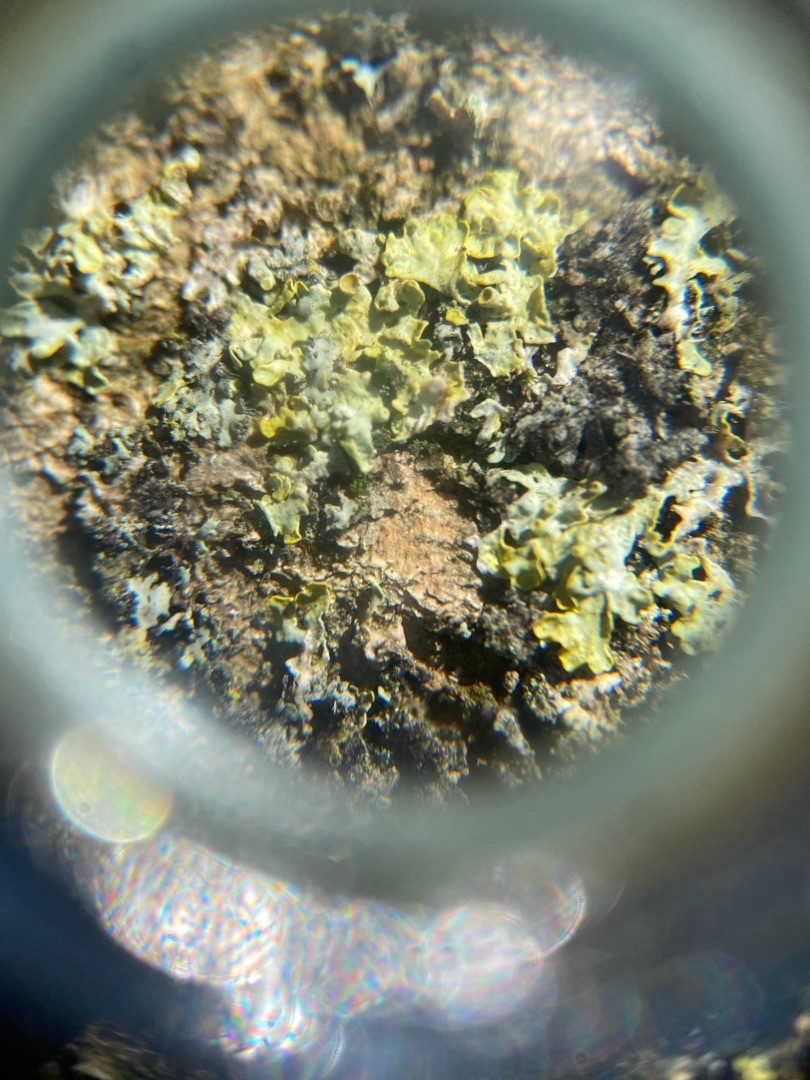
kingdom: Fungi
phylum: Ascomycota
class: Lecanoromycetes
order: Teloschistales
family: Teloschistaceae
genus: Xanthoria
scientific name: Xanthoria parietina
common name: Almindelig væggelav
